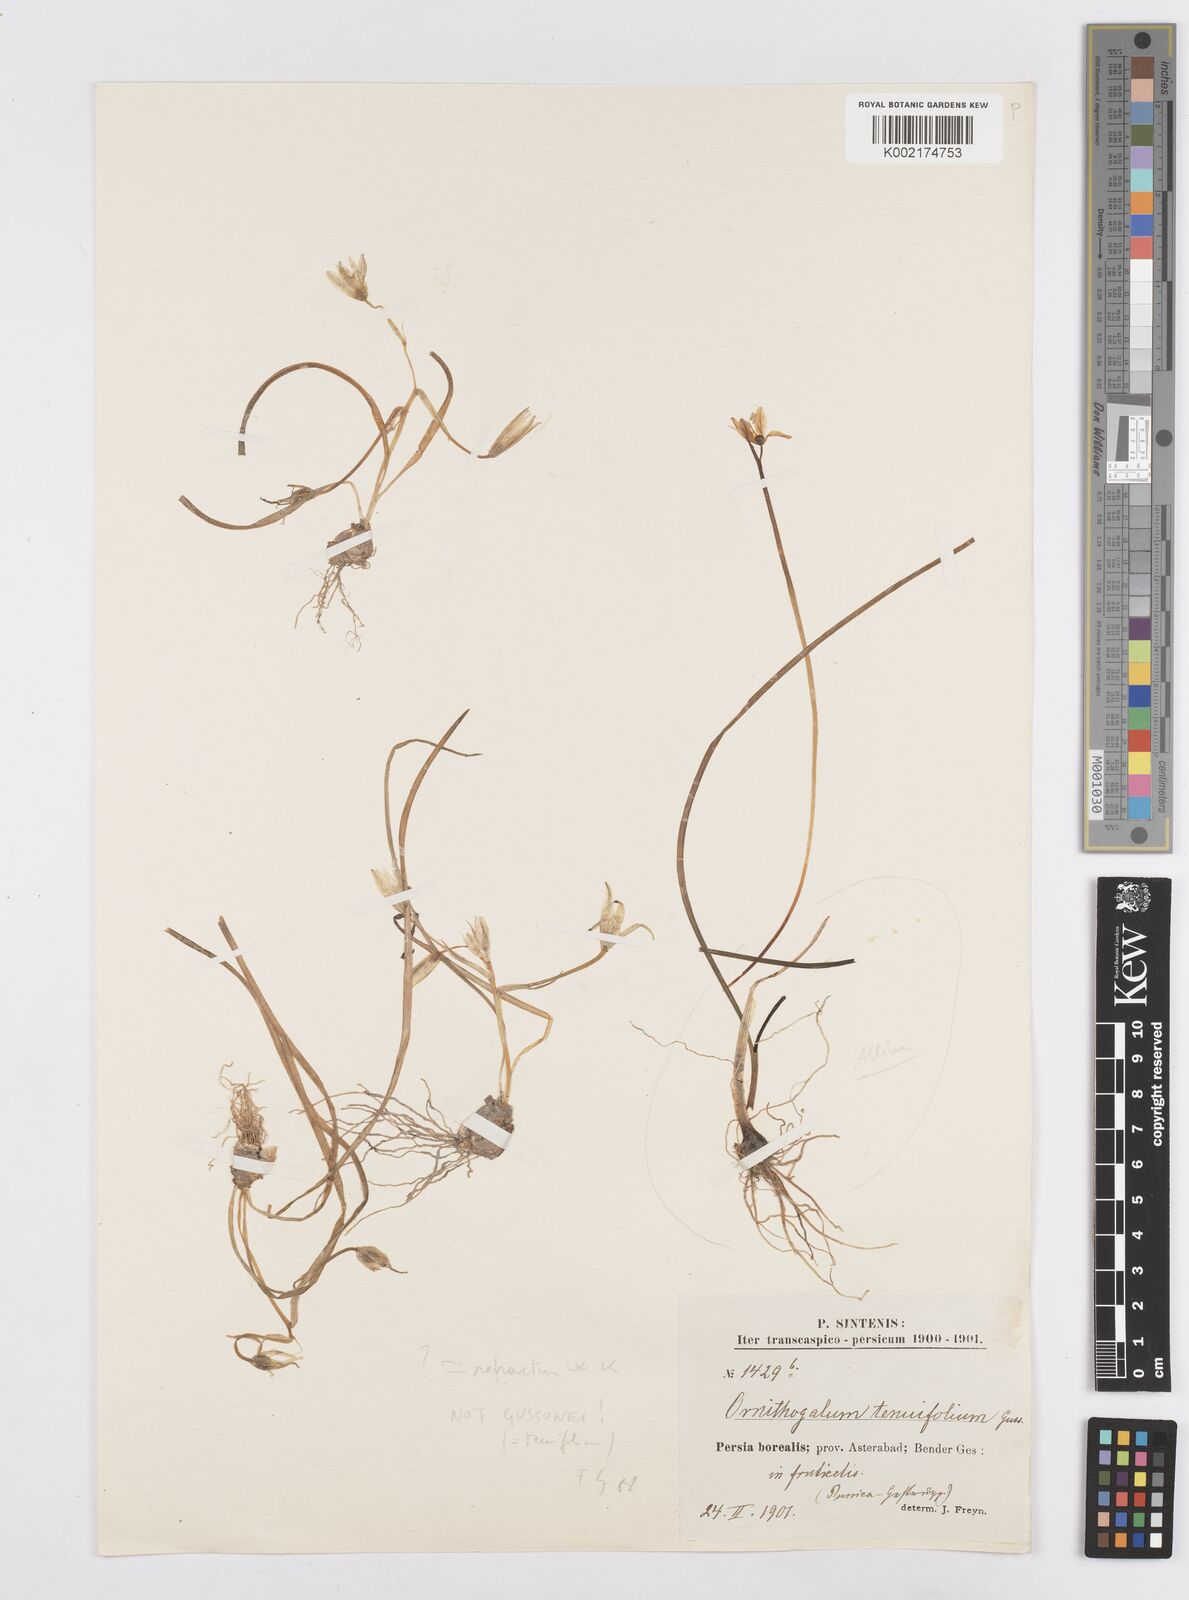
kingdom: Plantae
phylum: Tracheophyta
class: Liliopsida
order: Asparagales
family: Asparagaceae
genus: Ornithogalum
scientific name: Ornithogalum gussonei
